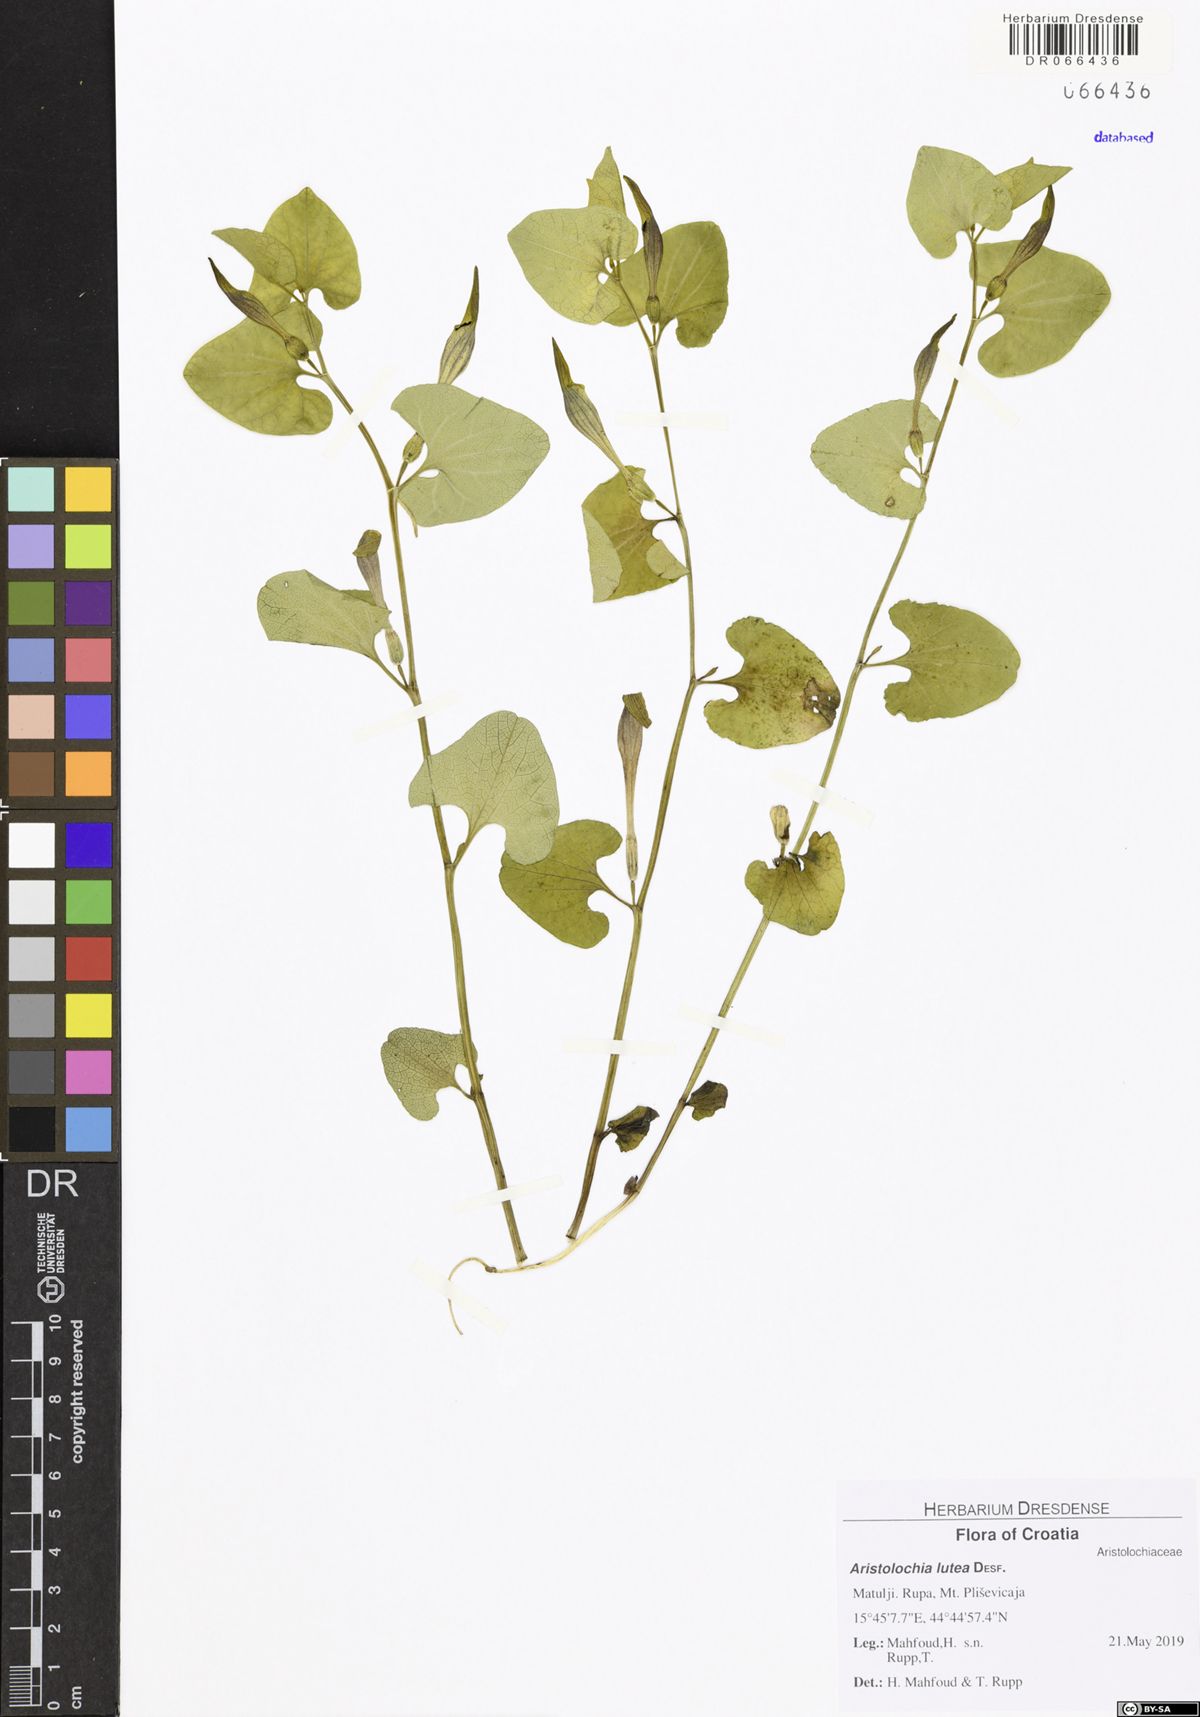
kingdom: Plantae
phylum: Tracheophyta
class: Magnoliopsida
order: Piperales
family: Aristolochiaceae
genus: Aristolochia
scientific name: Aristolochia lutea
